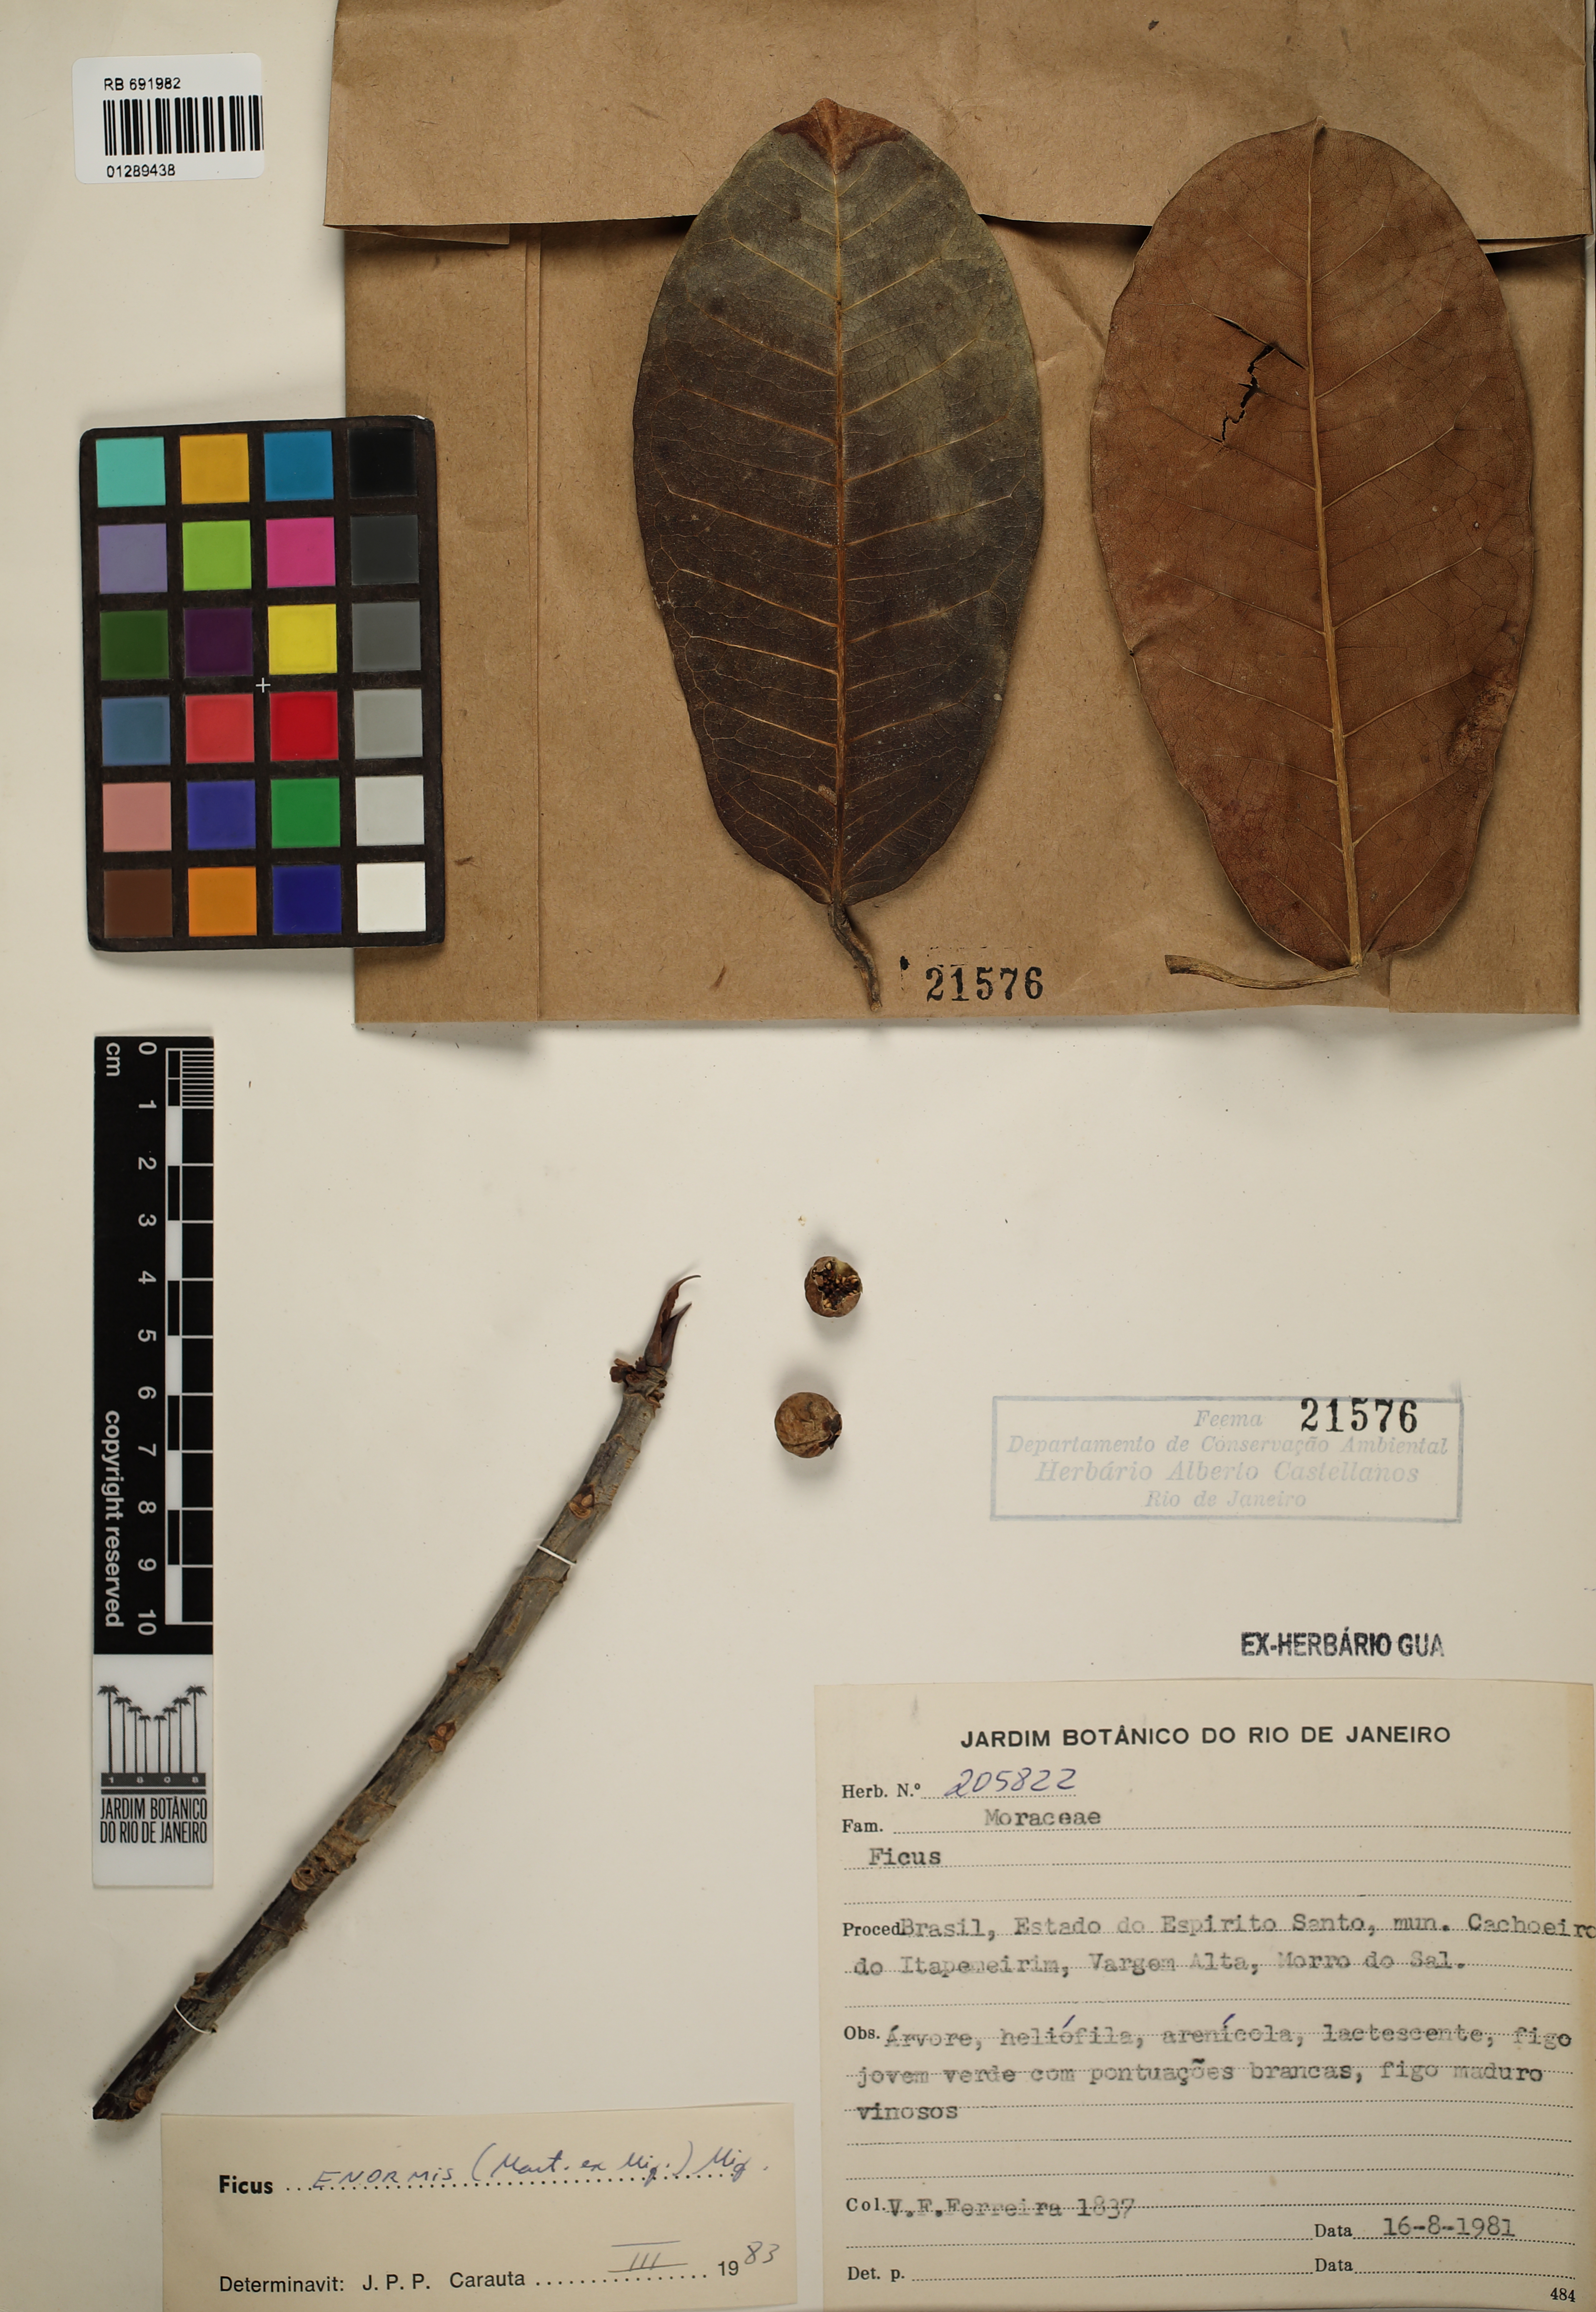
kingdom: Plantae
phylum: Tracheophyta
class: Magnoliopsida
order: Rosales
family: Moraceae
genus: Ficus
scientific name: Ficus enormis
